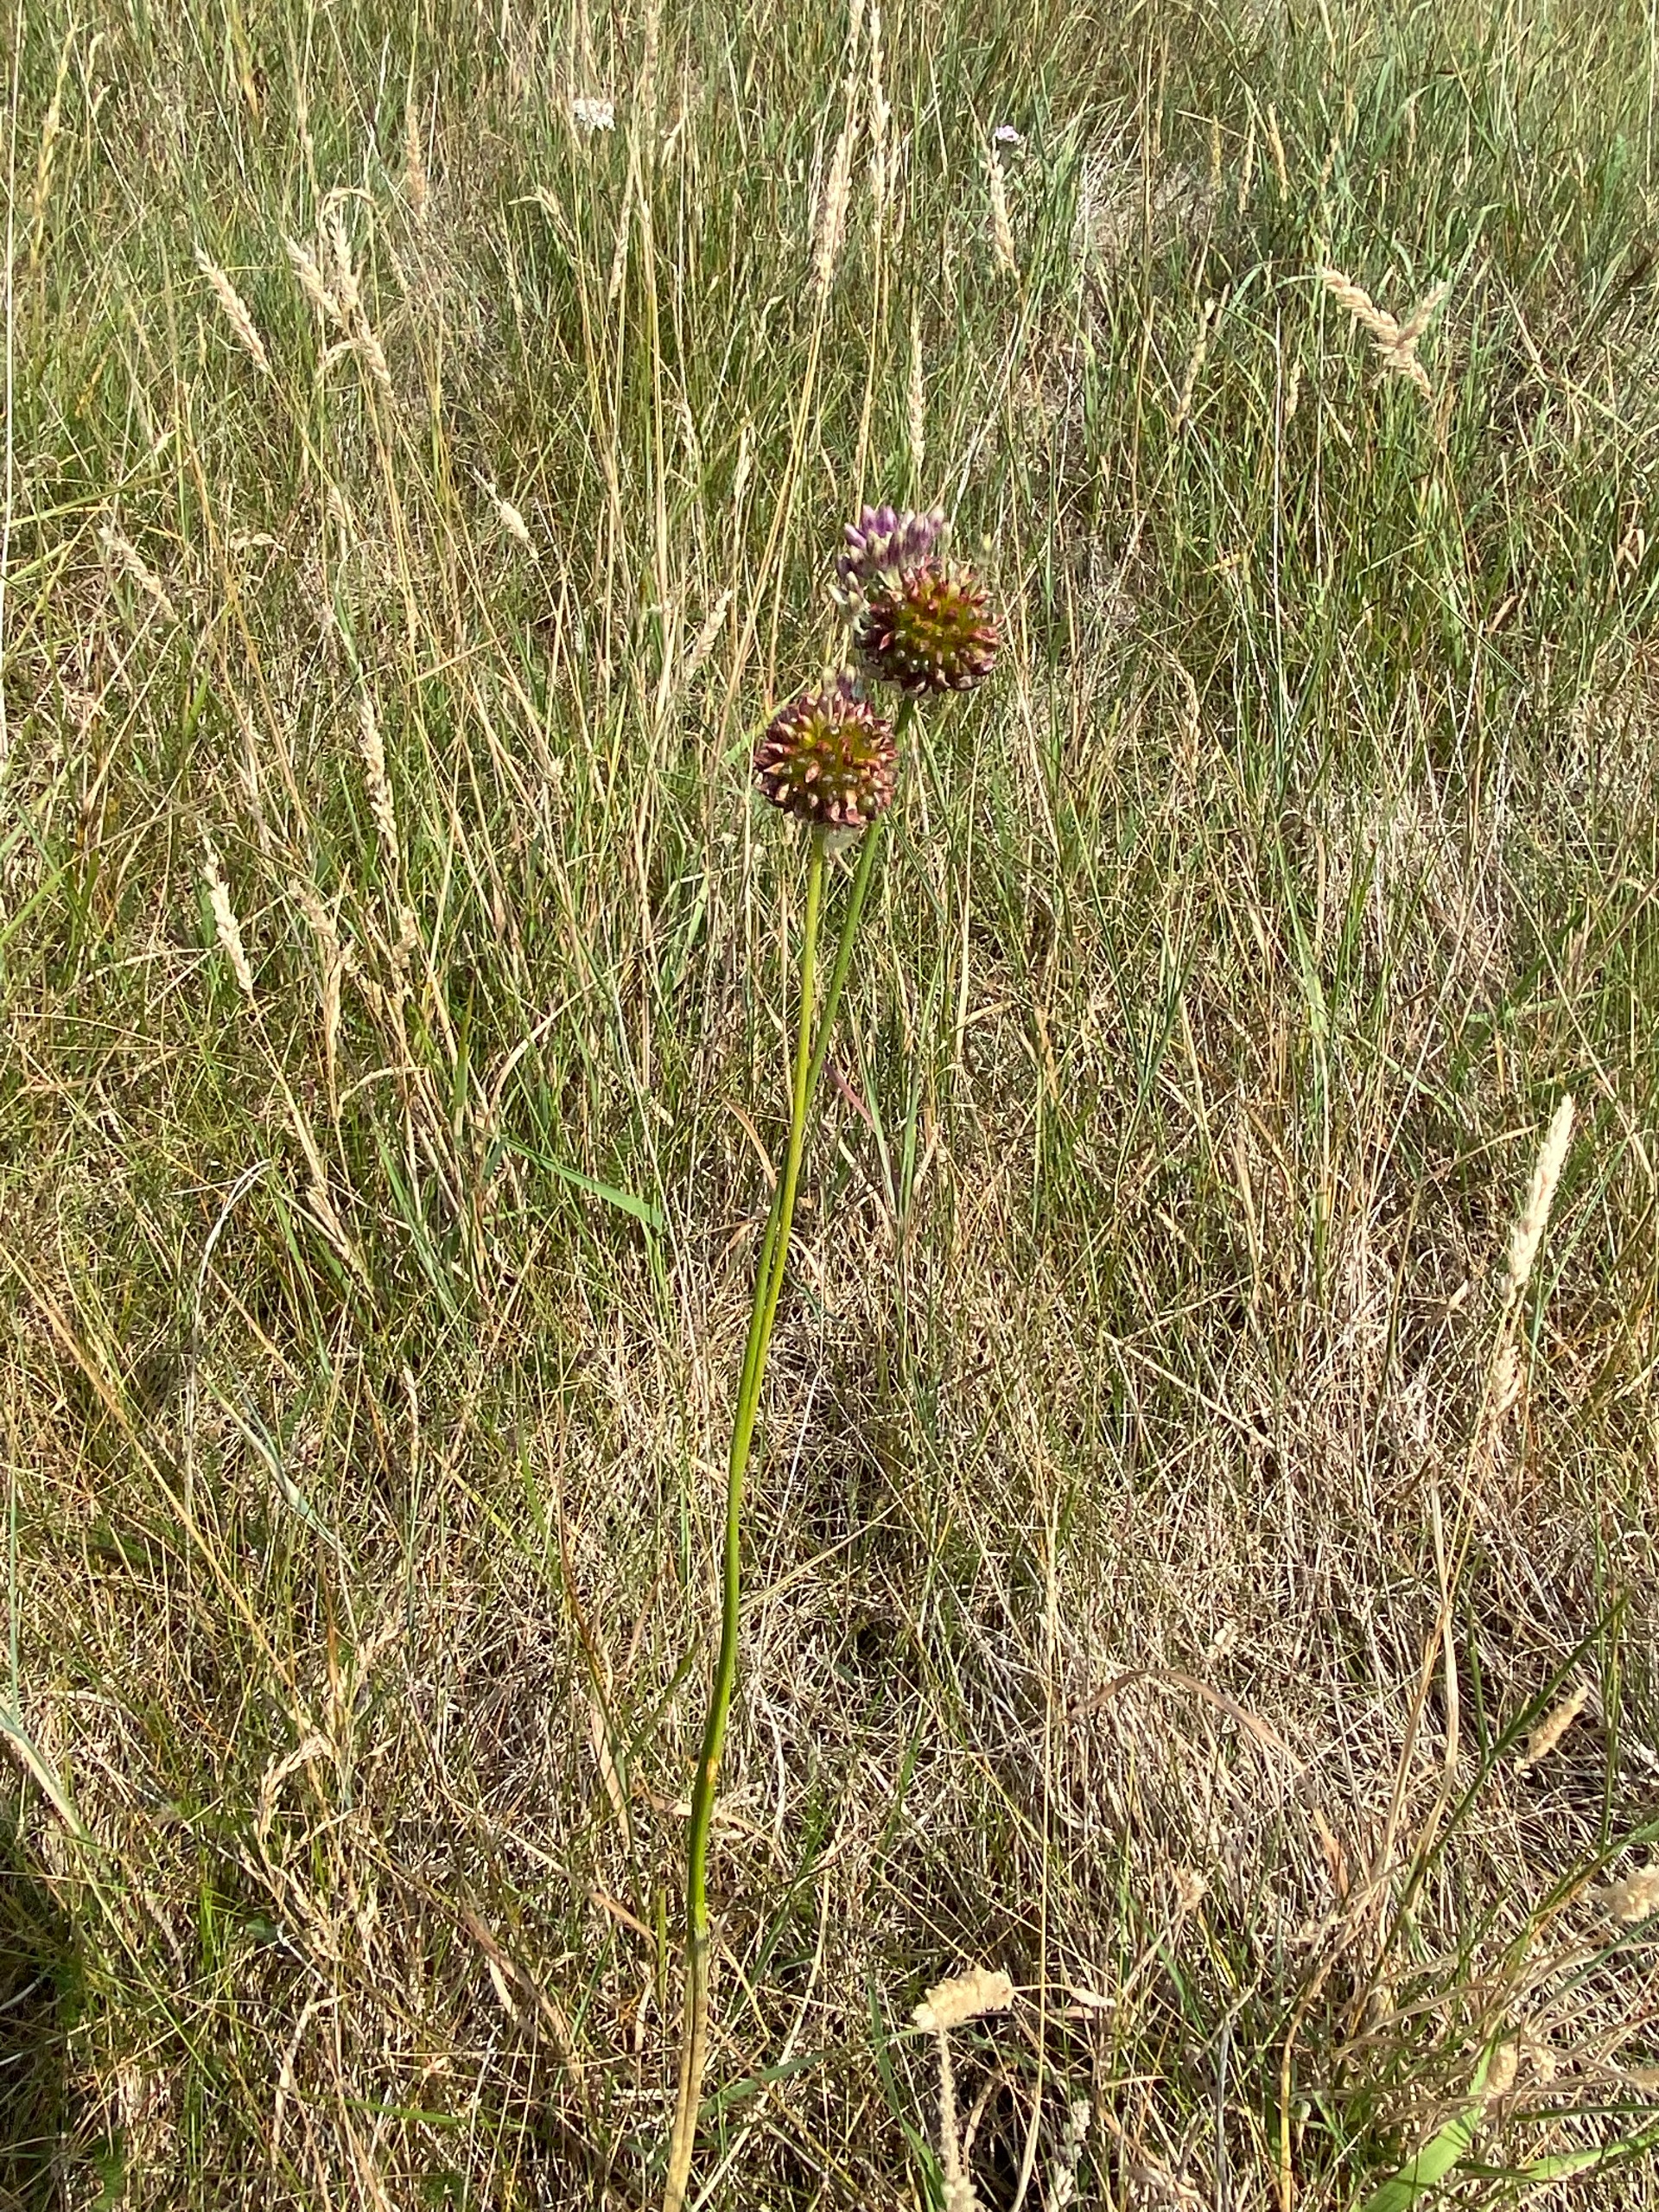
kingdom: Plantae
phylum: Tracheophyta
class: Liliopsida
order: Asparagales
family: Amaryllidaceae
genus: Allium
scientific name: Allium vineale
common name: Sand-løg
